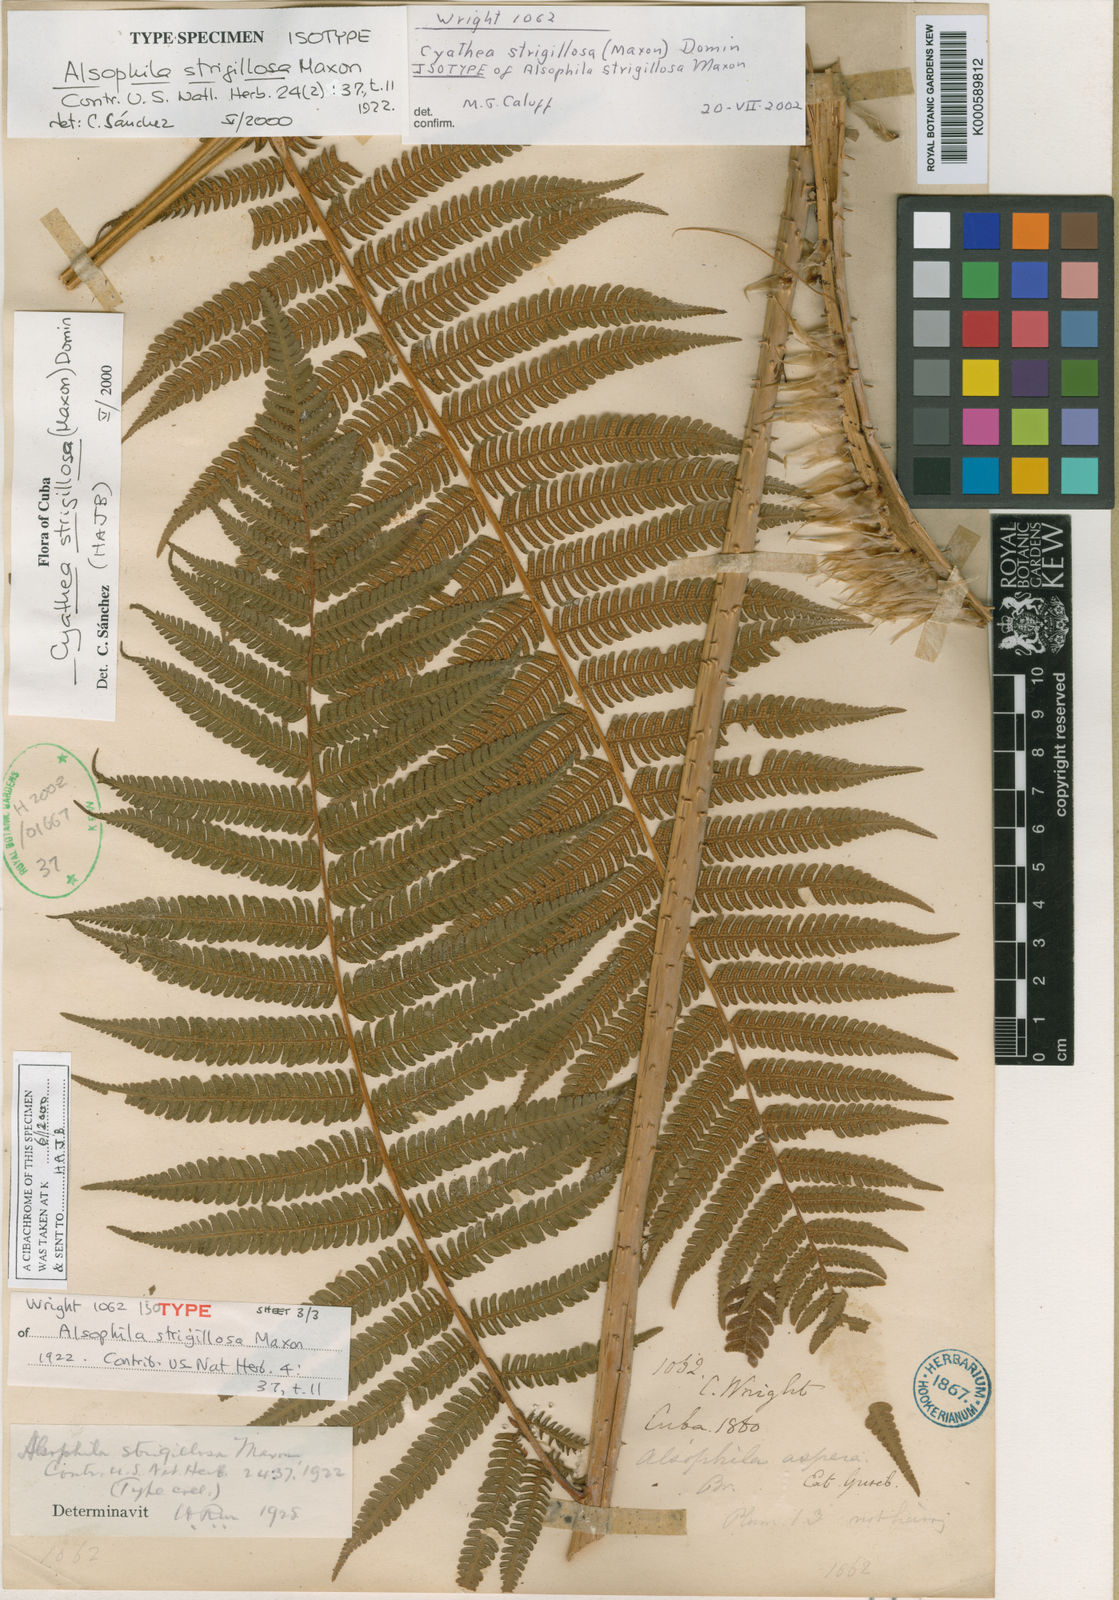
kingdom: Plantae
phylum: Tracheophyta
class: Polypodiopsida
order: Cyatheales
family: Cyatheaceae
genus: Cyathea
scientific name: Cyathea strigillosa
